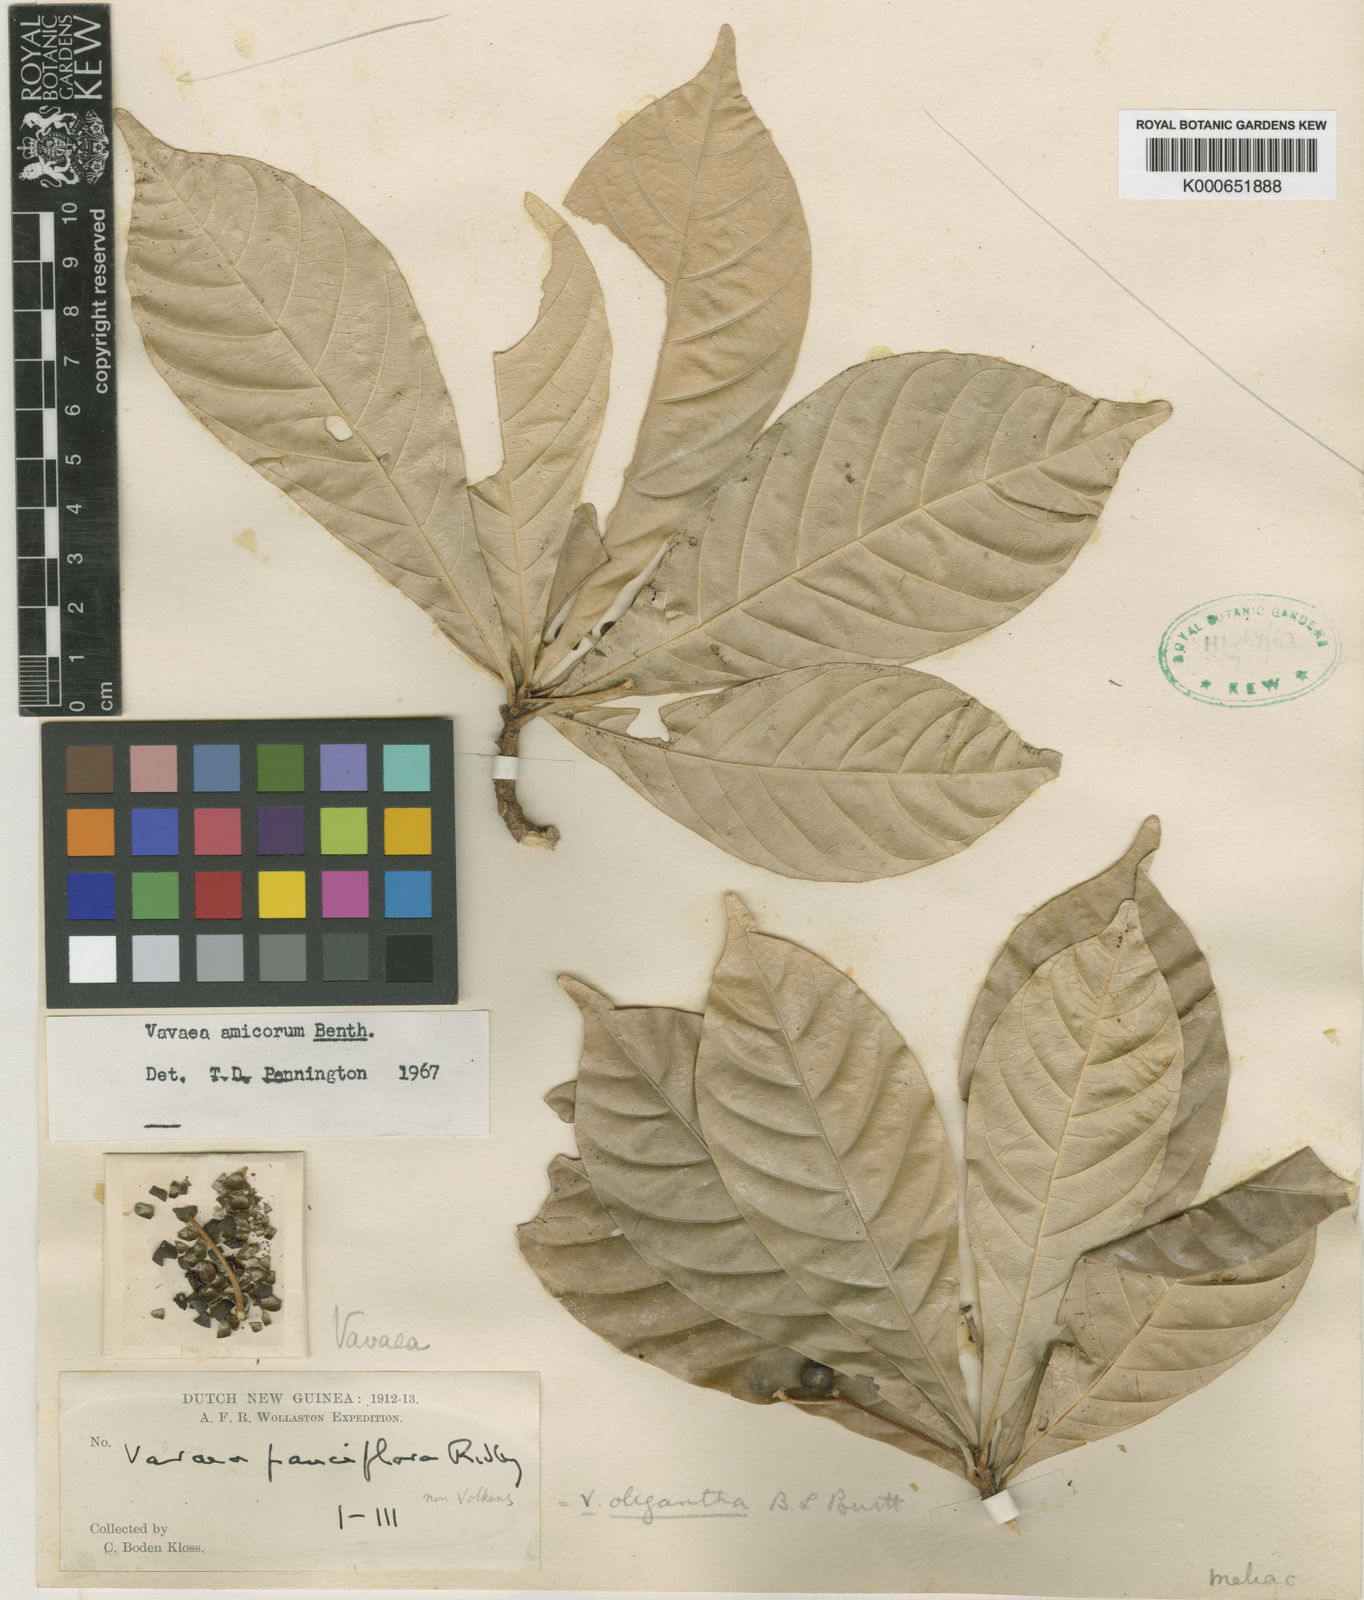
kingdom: Plantae
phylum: Tracheophyta
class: Magnoliopsida
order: Sapindales
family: Meliaceae
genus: Vavaea
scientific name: Vavaea amicorum
